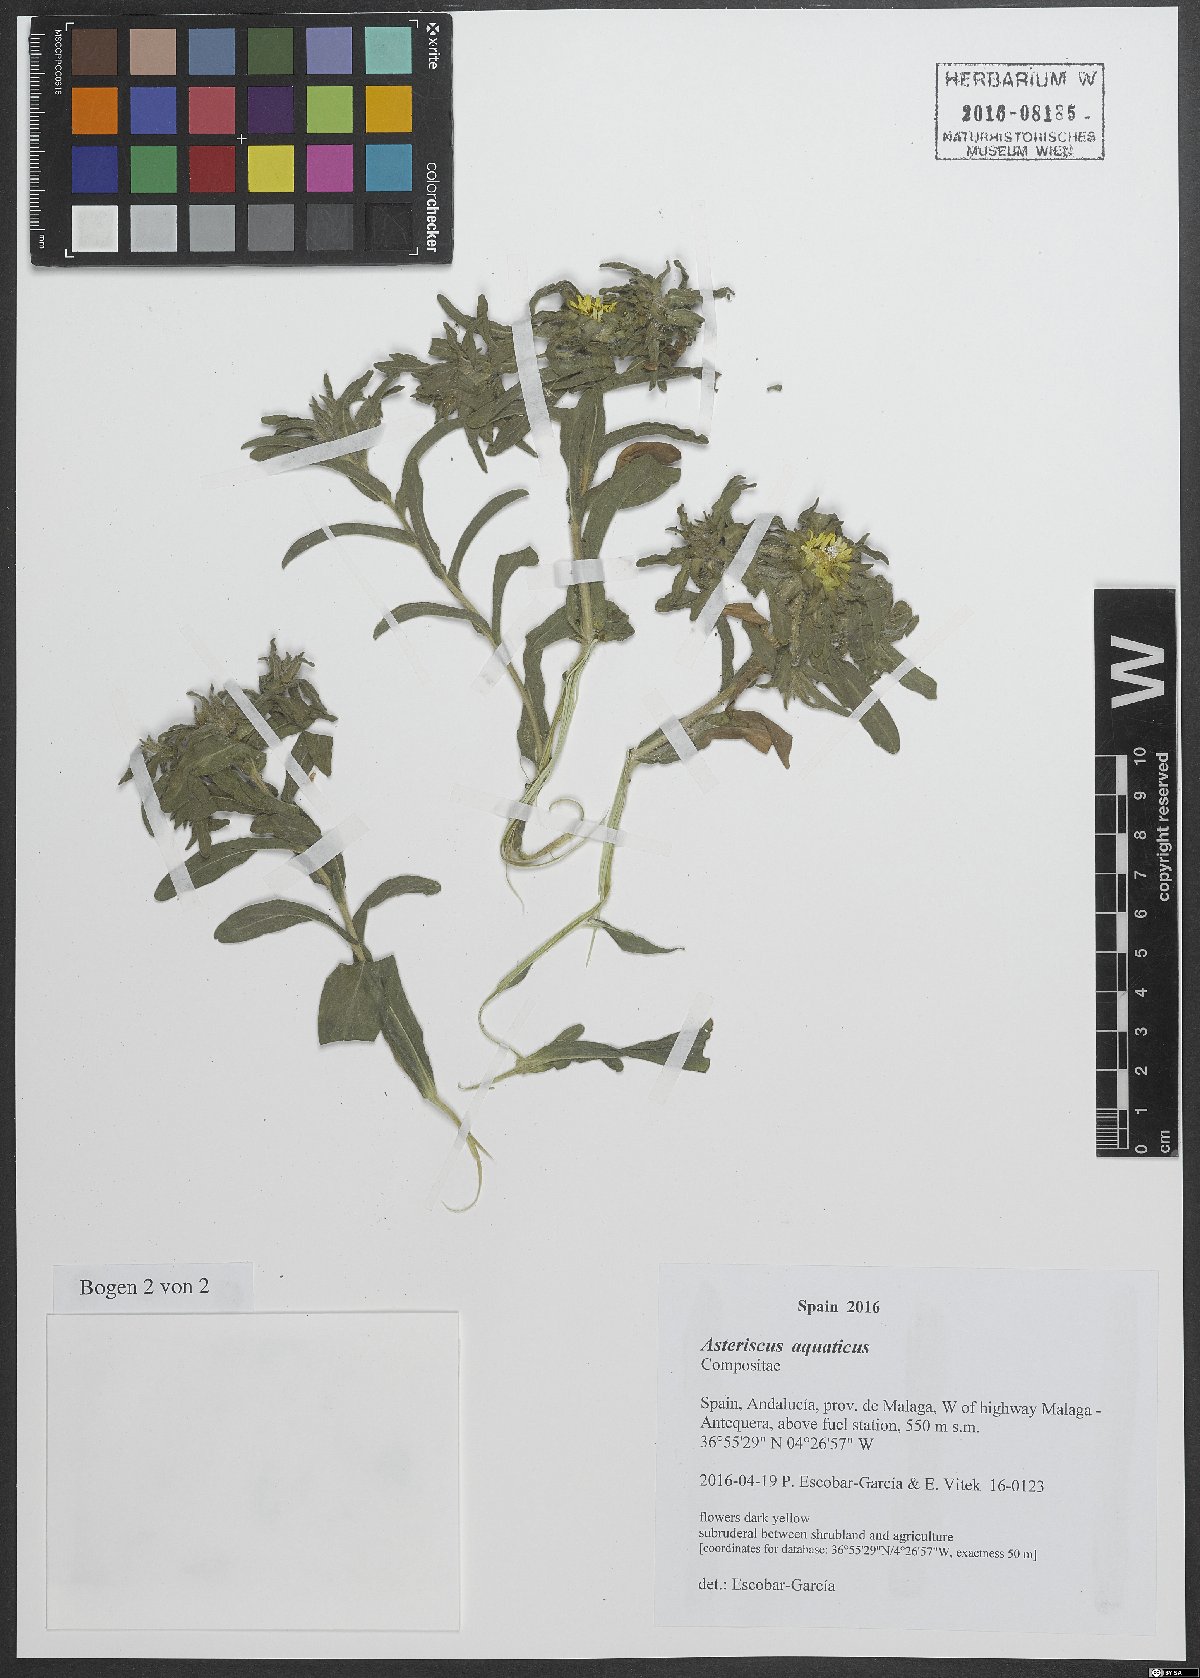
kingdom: Plantae
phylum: Tracheophyta
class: Magnoliopsida
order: Asterales
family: Asteraceae
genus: Asteriscus
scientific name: Asteriscus aquaticus
